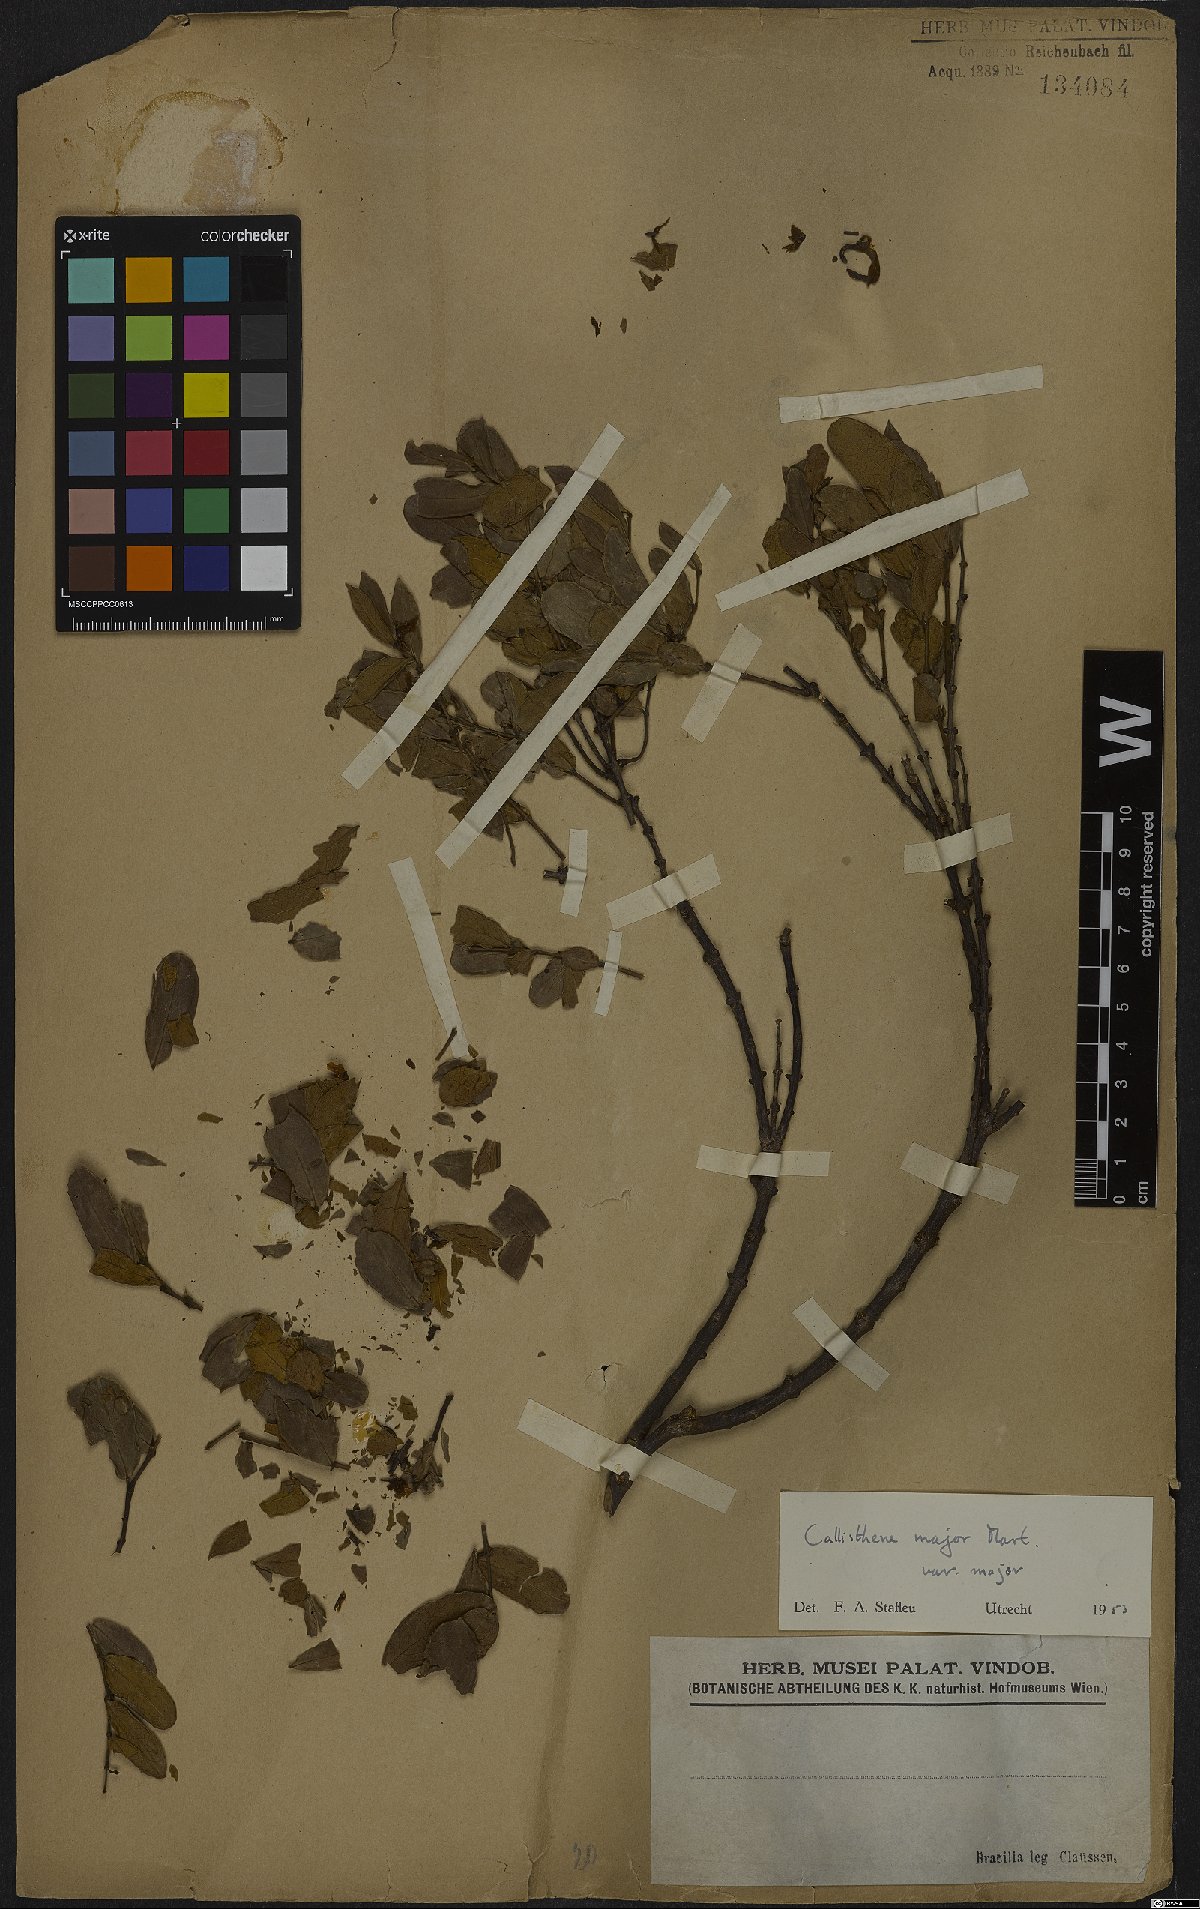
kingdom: Plantae
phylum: Tracheophyta
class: Magnoliopsida
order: Myrtales
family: Vochysiaceae
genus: Callisthene
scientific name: Callisthene major
